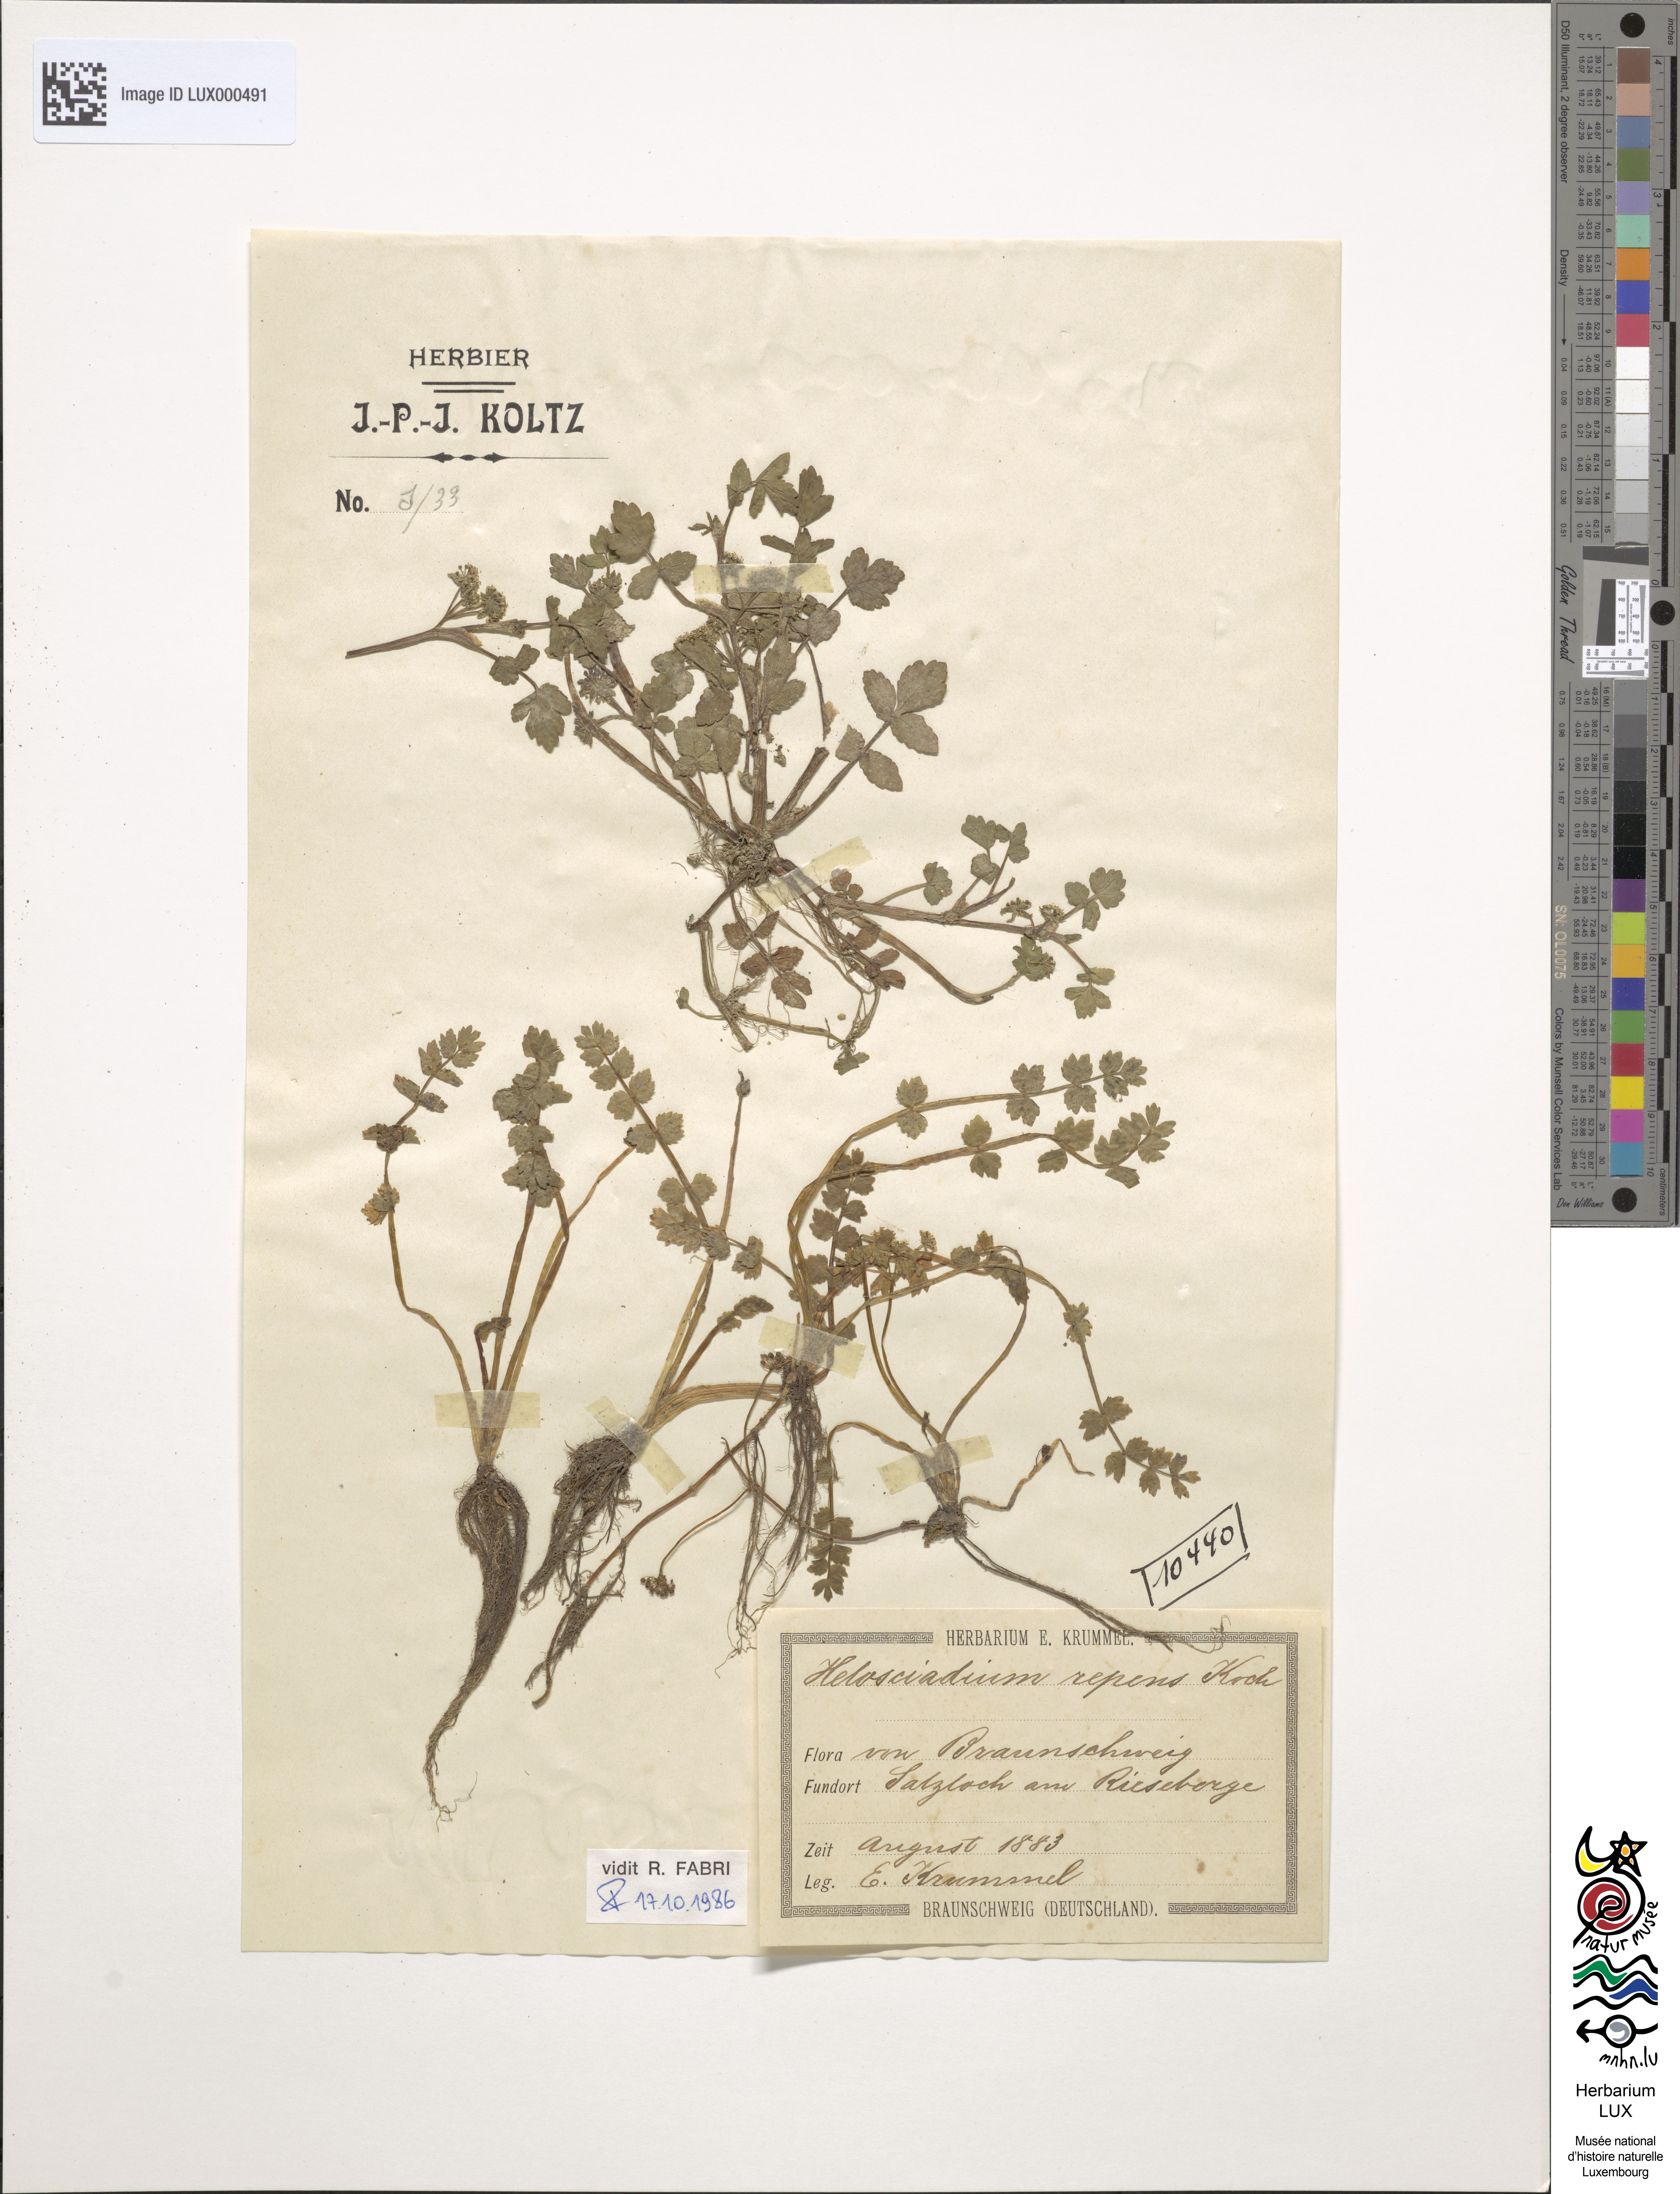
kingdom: Plantae
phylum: Tracheophyta
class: Magnoliopsida
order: Apiales
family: Apiaceae
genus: Helosciadium
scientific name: Helosciadium repens
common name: Creeping marshwort
